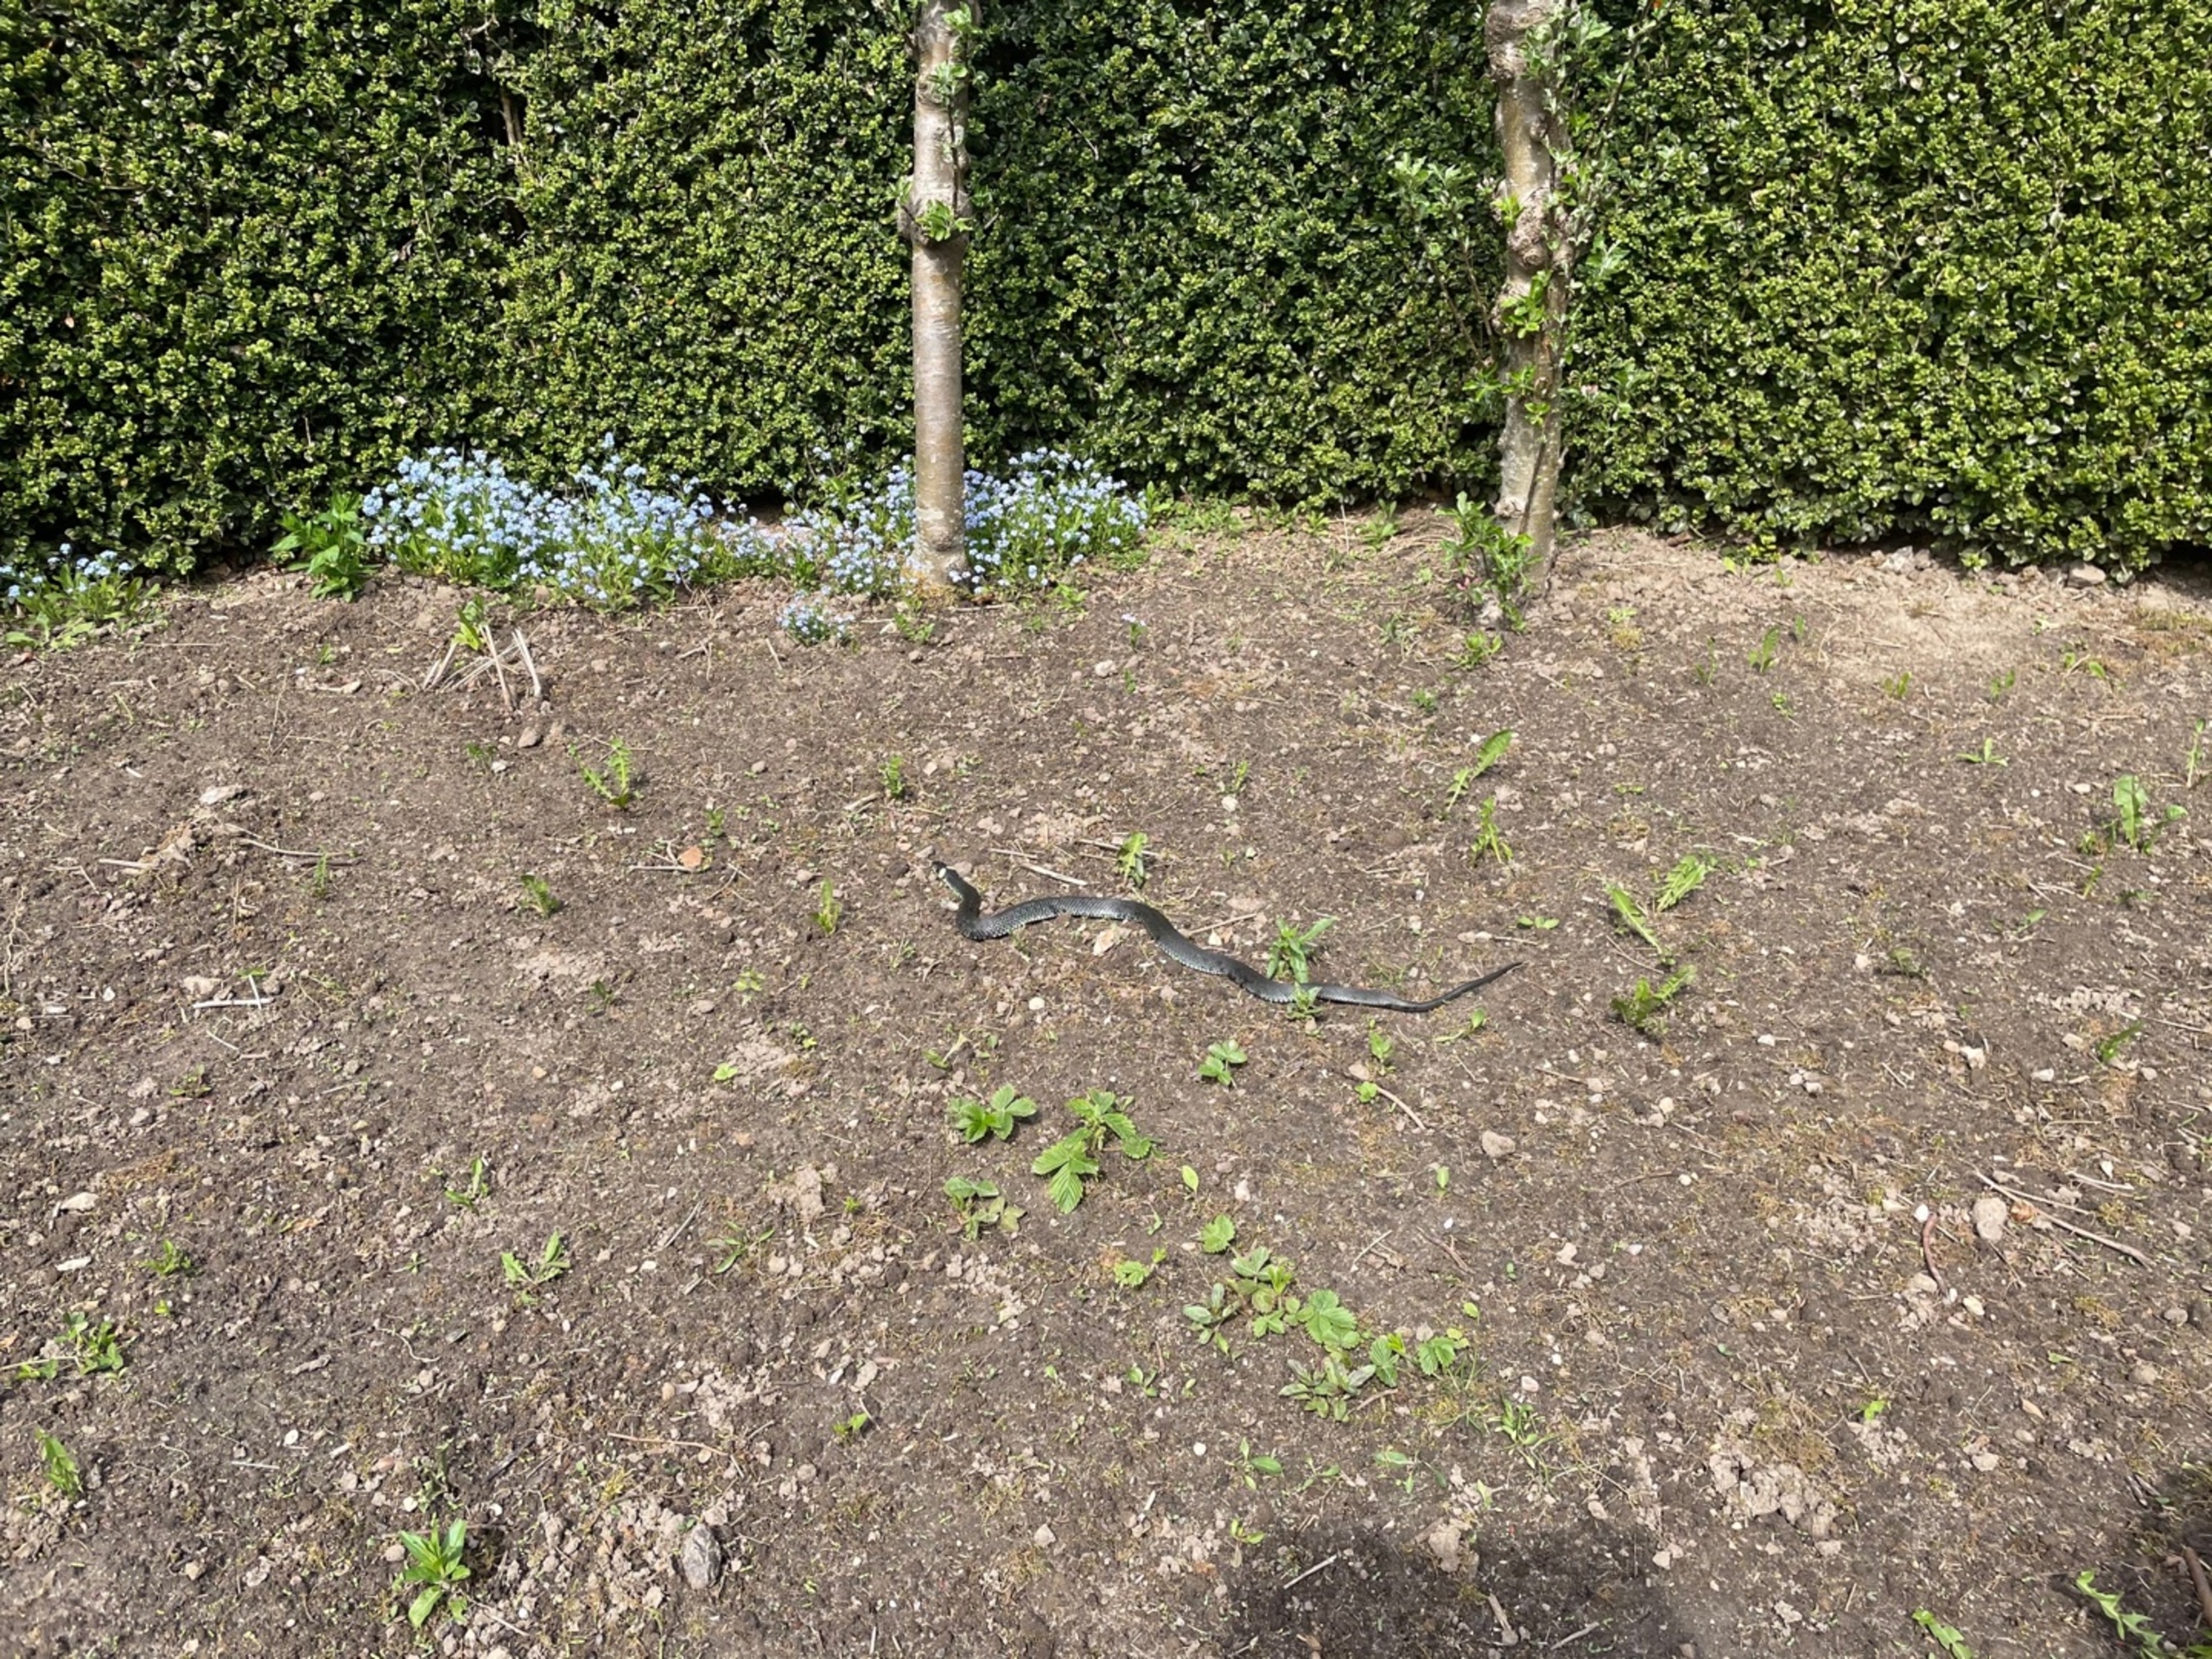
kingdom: Animalia
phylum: Chordata
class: Squamata
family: Colubridae
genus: Natrix
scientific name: Natrix natrix
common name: Snog
